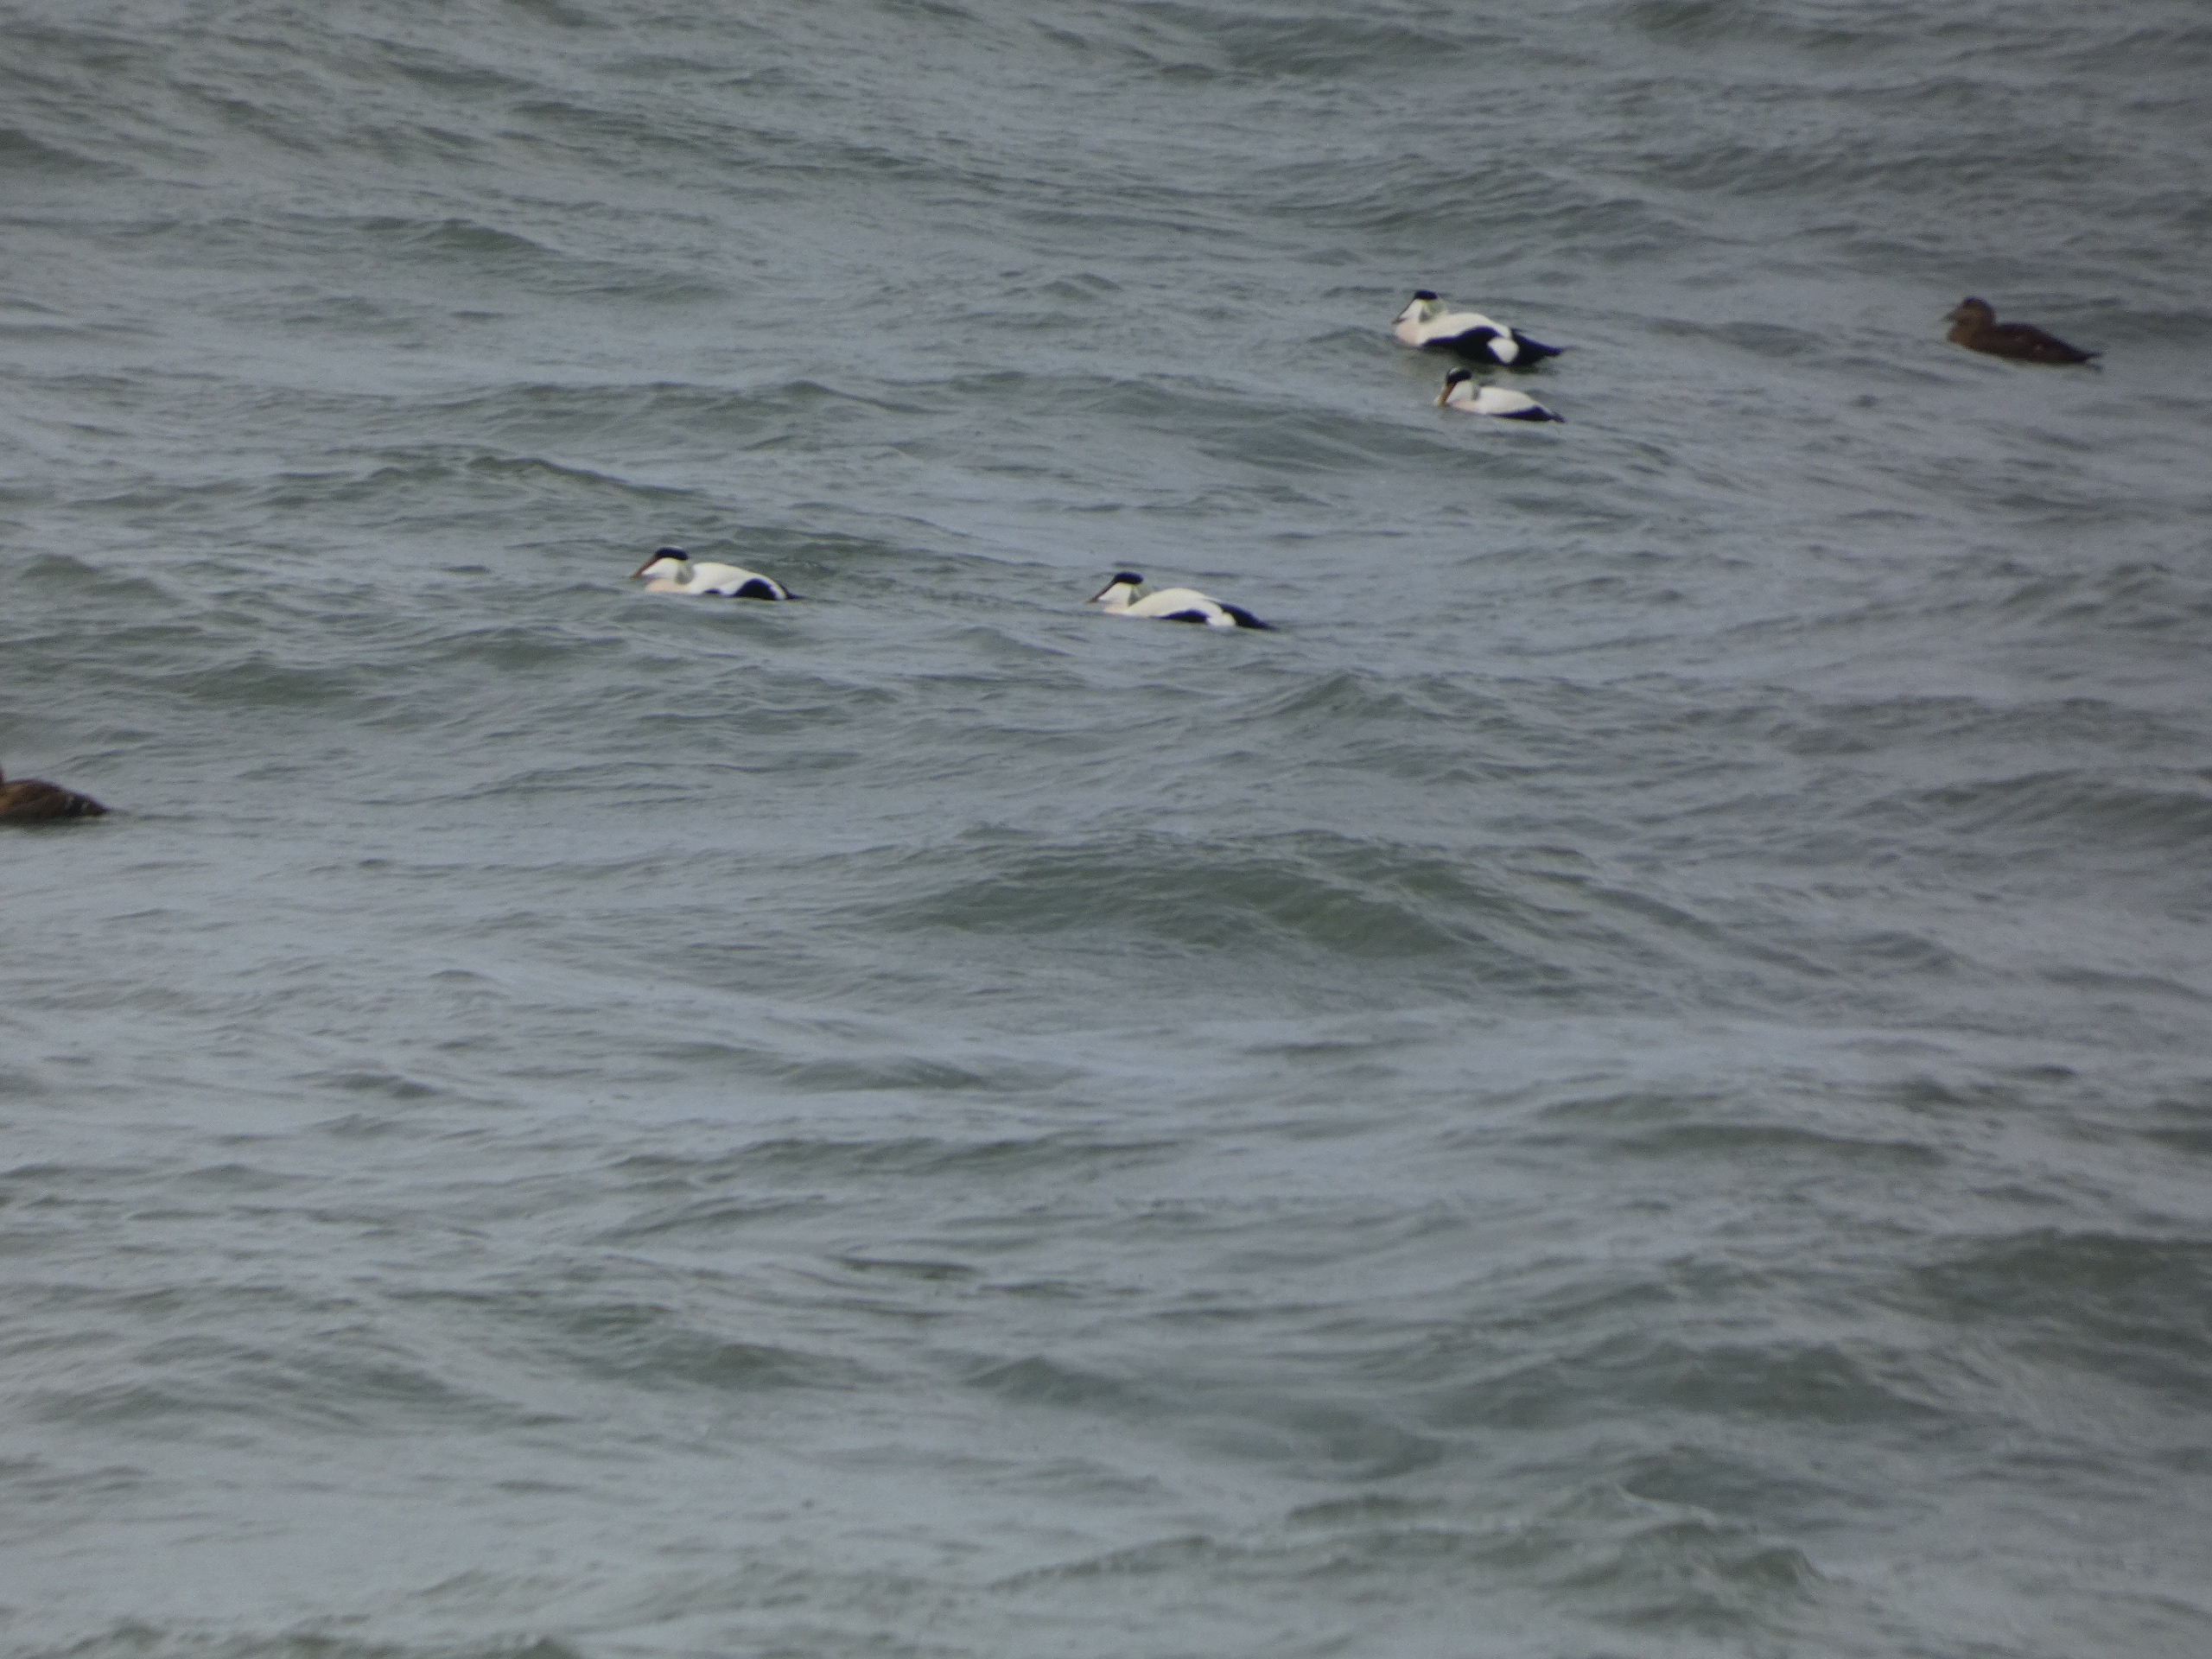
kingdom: Animalia
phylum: Chordata
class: Aves
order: Anseriformes
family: Anatidae
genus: Somateria
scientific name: Somateria mollissima
